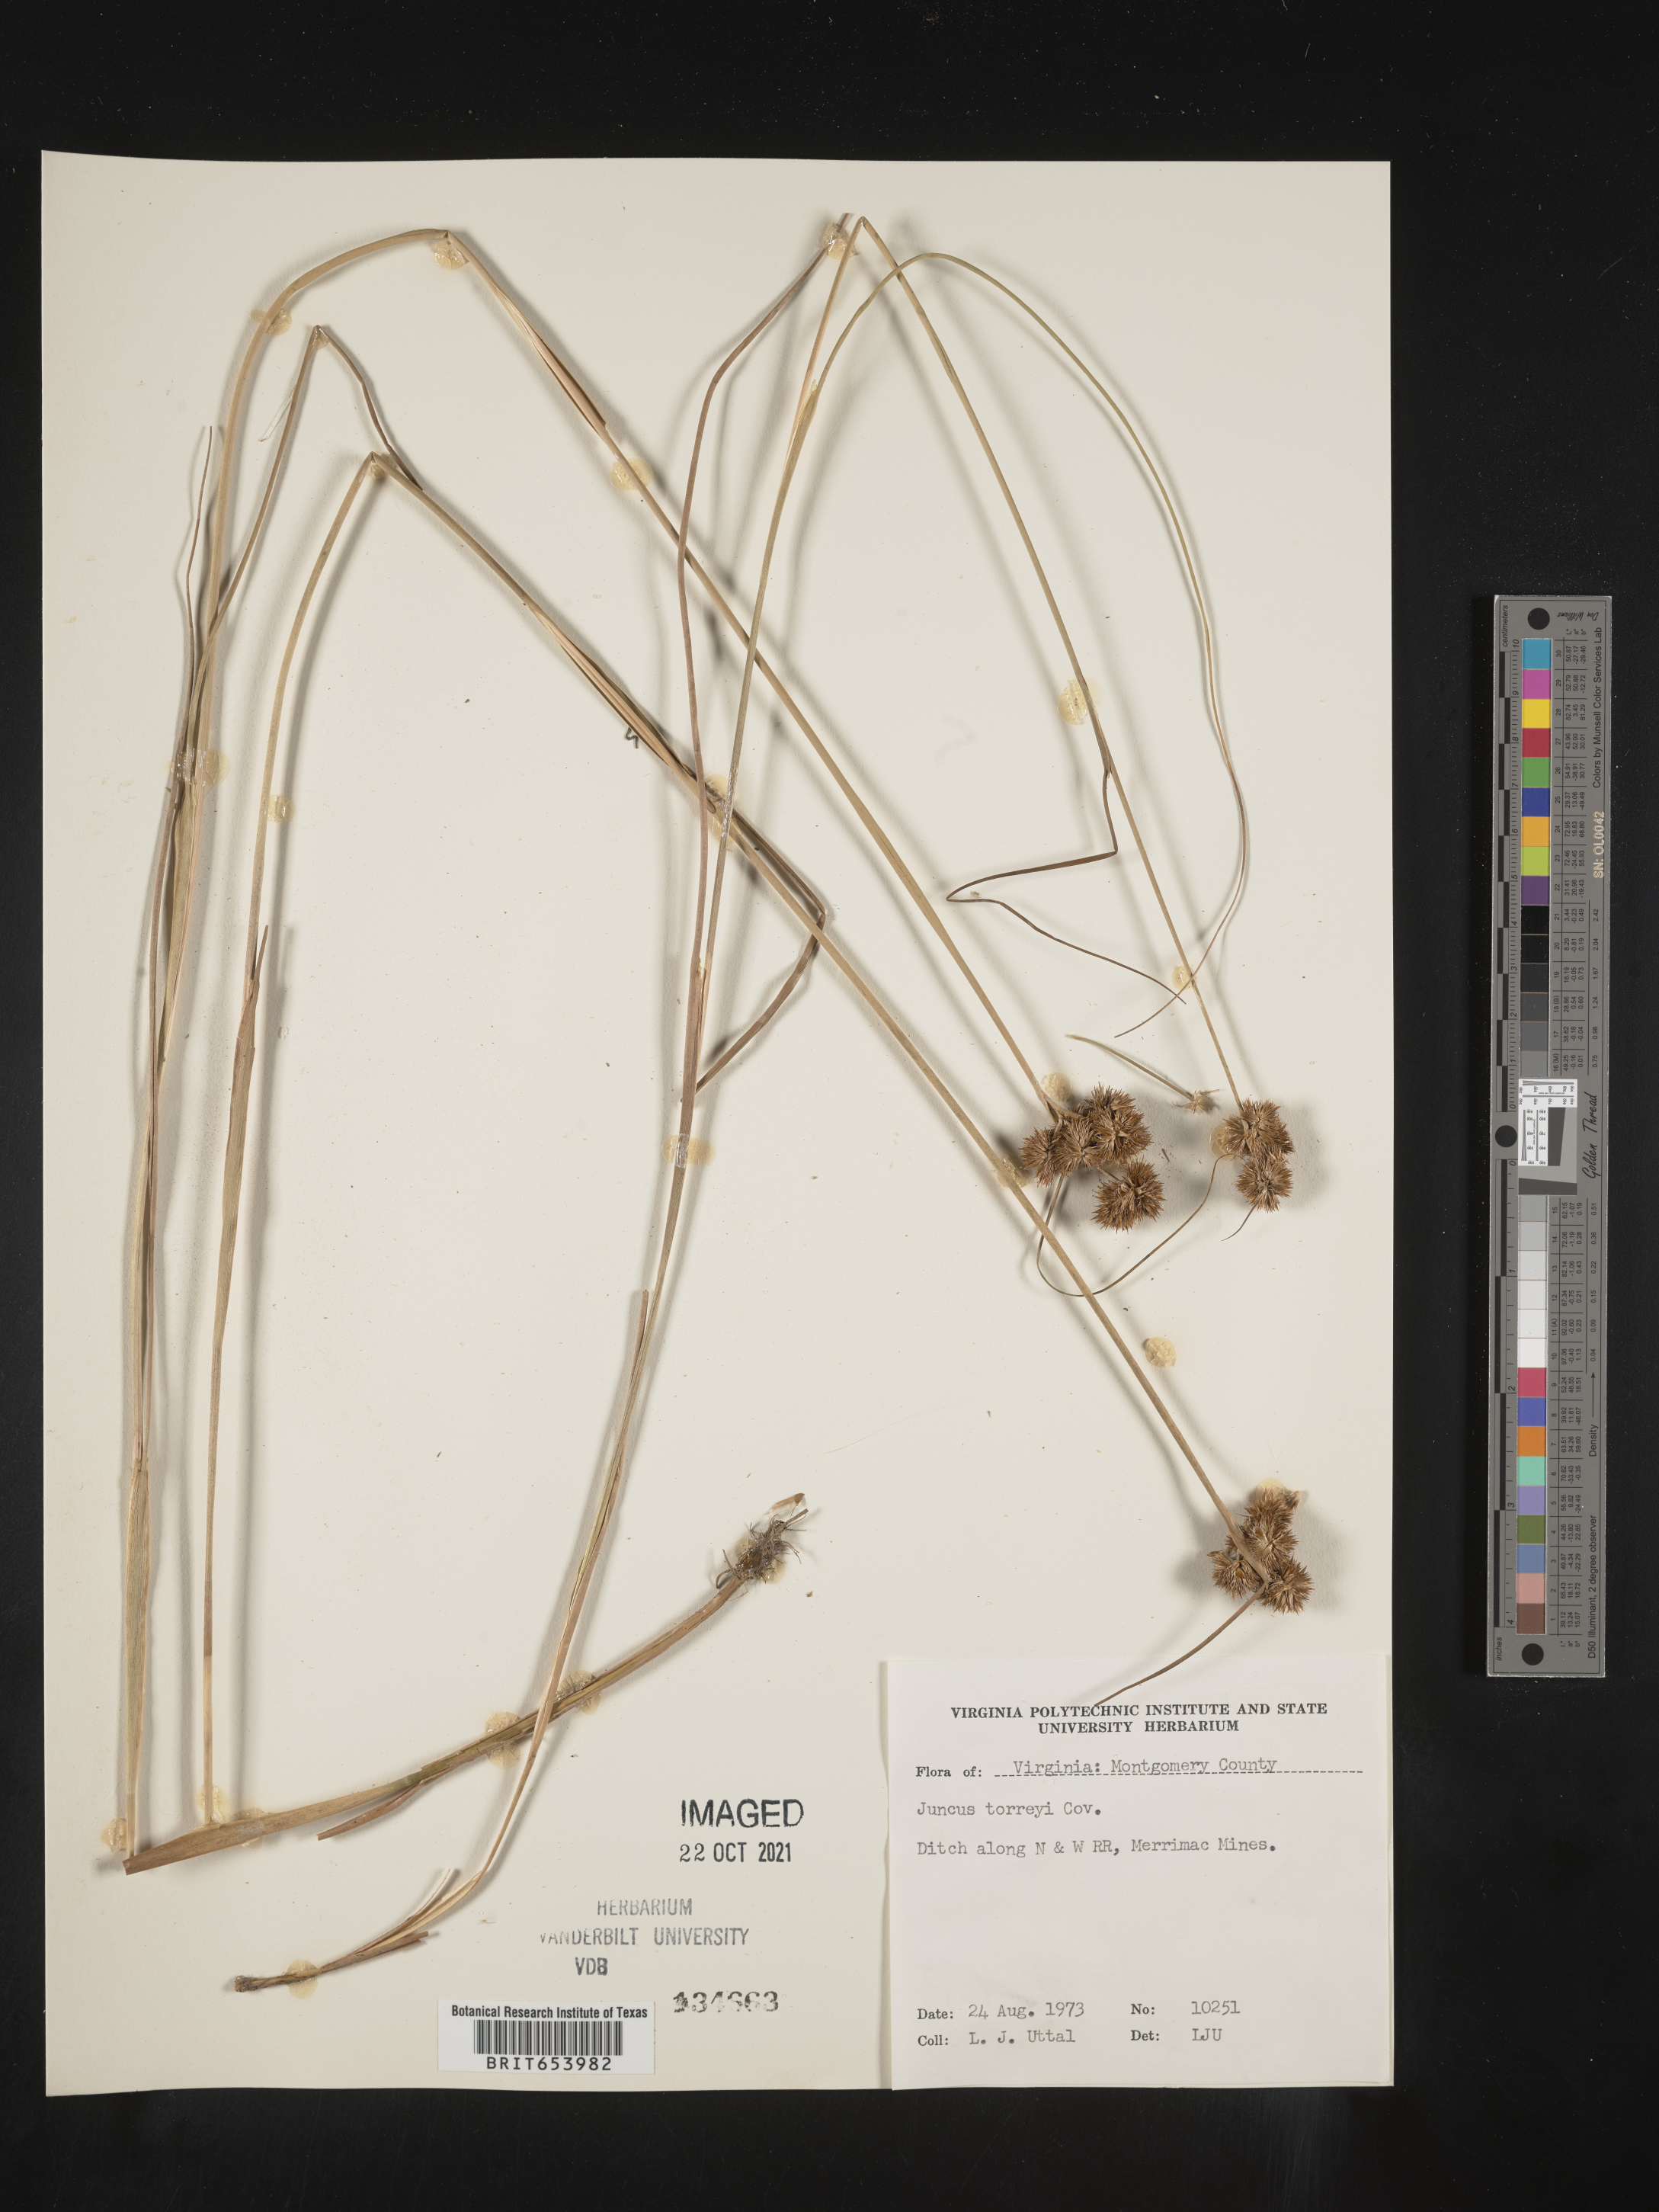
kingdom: Plantae
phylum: Tracheophyta
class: Liliopsida
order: Poales
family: Juncaceae
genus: Juncus
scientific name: Juncus torreyi
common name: Torrey's rush
